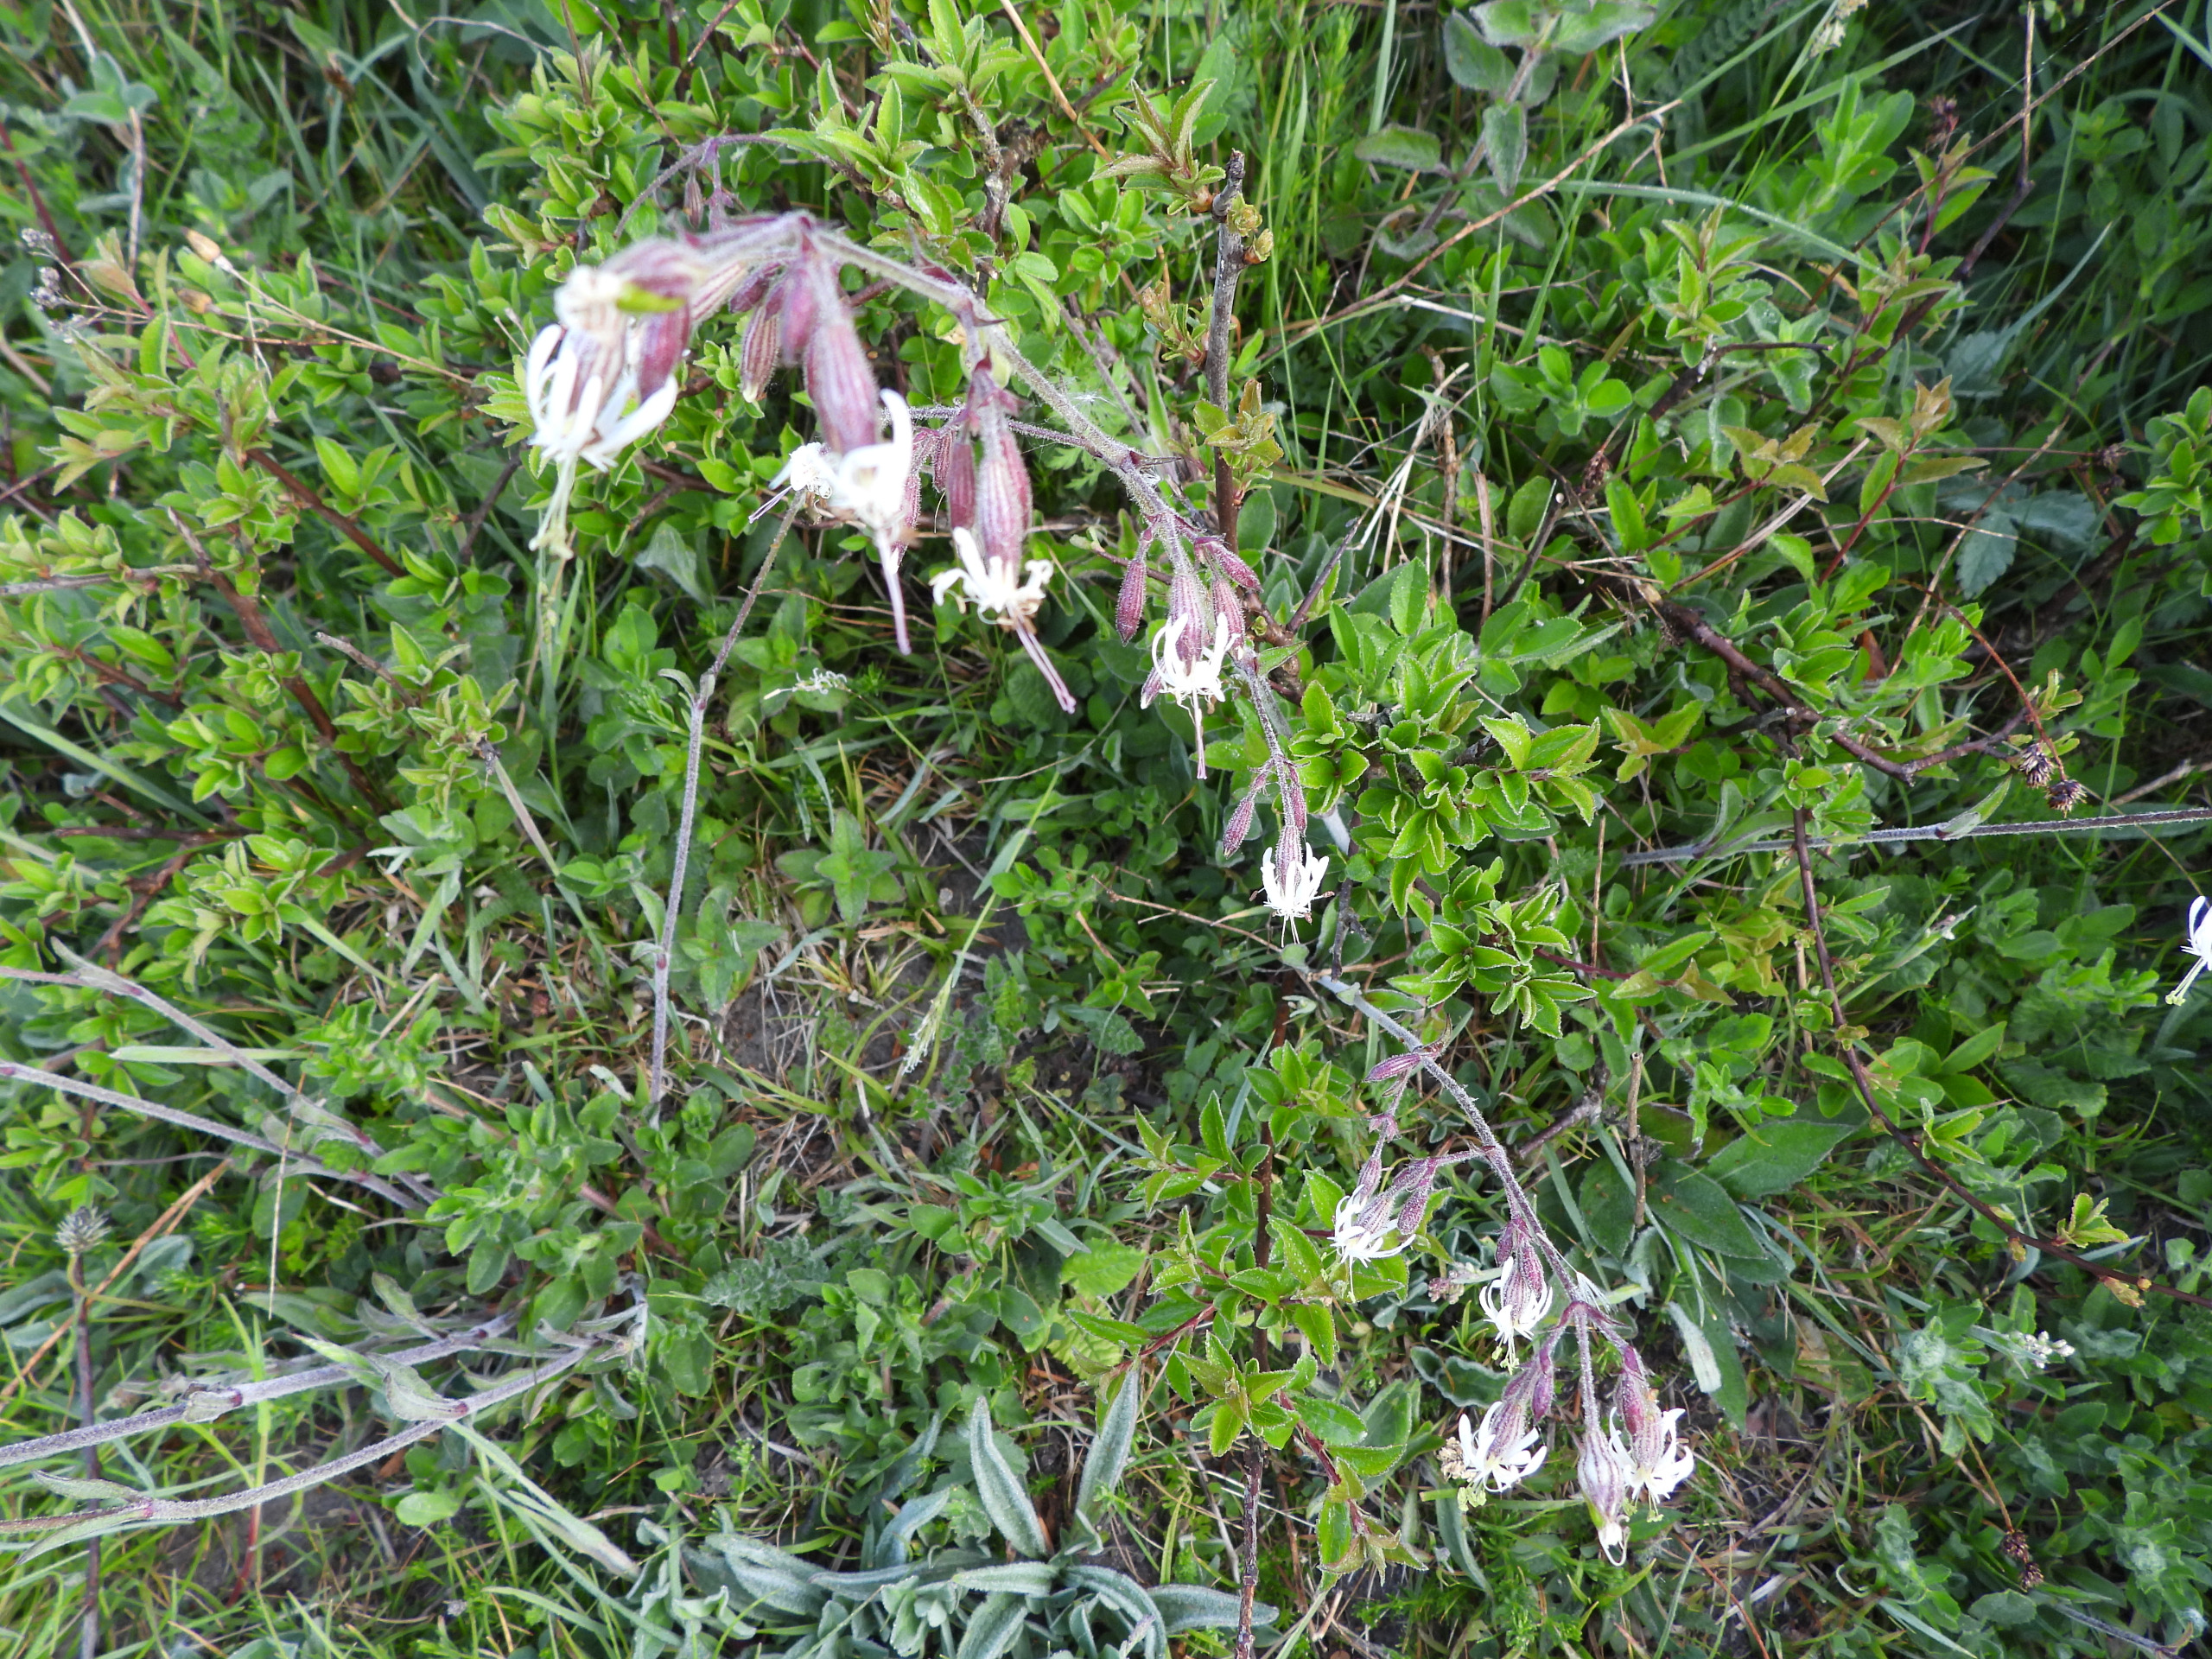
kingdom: Plantae
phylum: Tracheophyta
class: Magnoliopsida
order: Caryophyllales
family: Caryophyllaceae
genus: Silene
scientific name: Silene nutans
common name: Nikkende limurt
